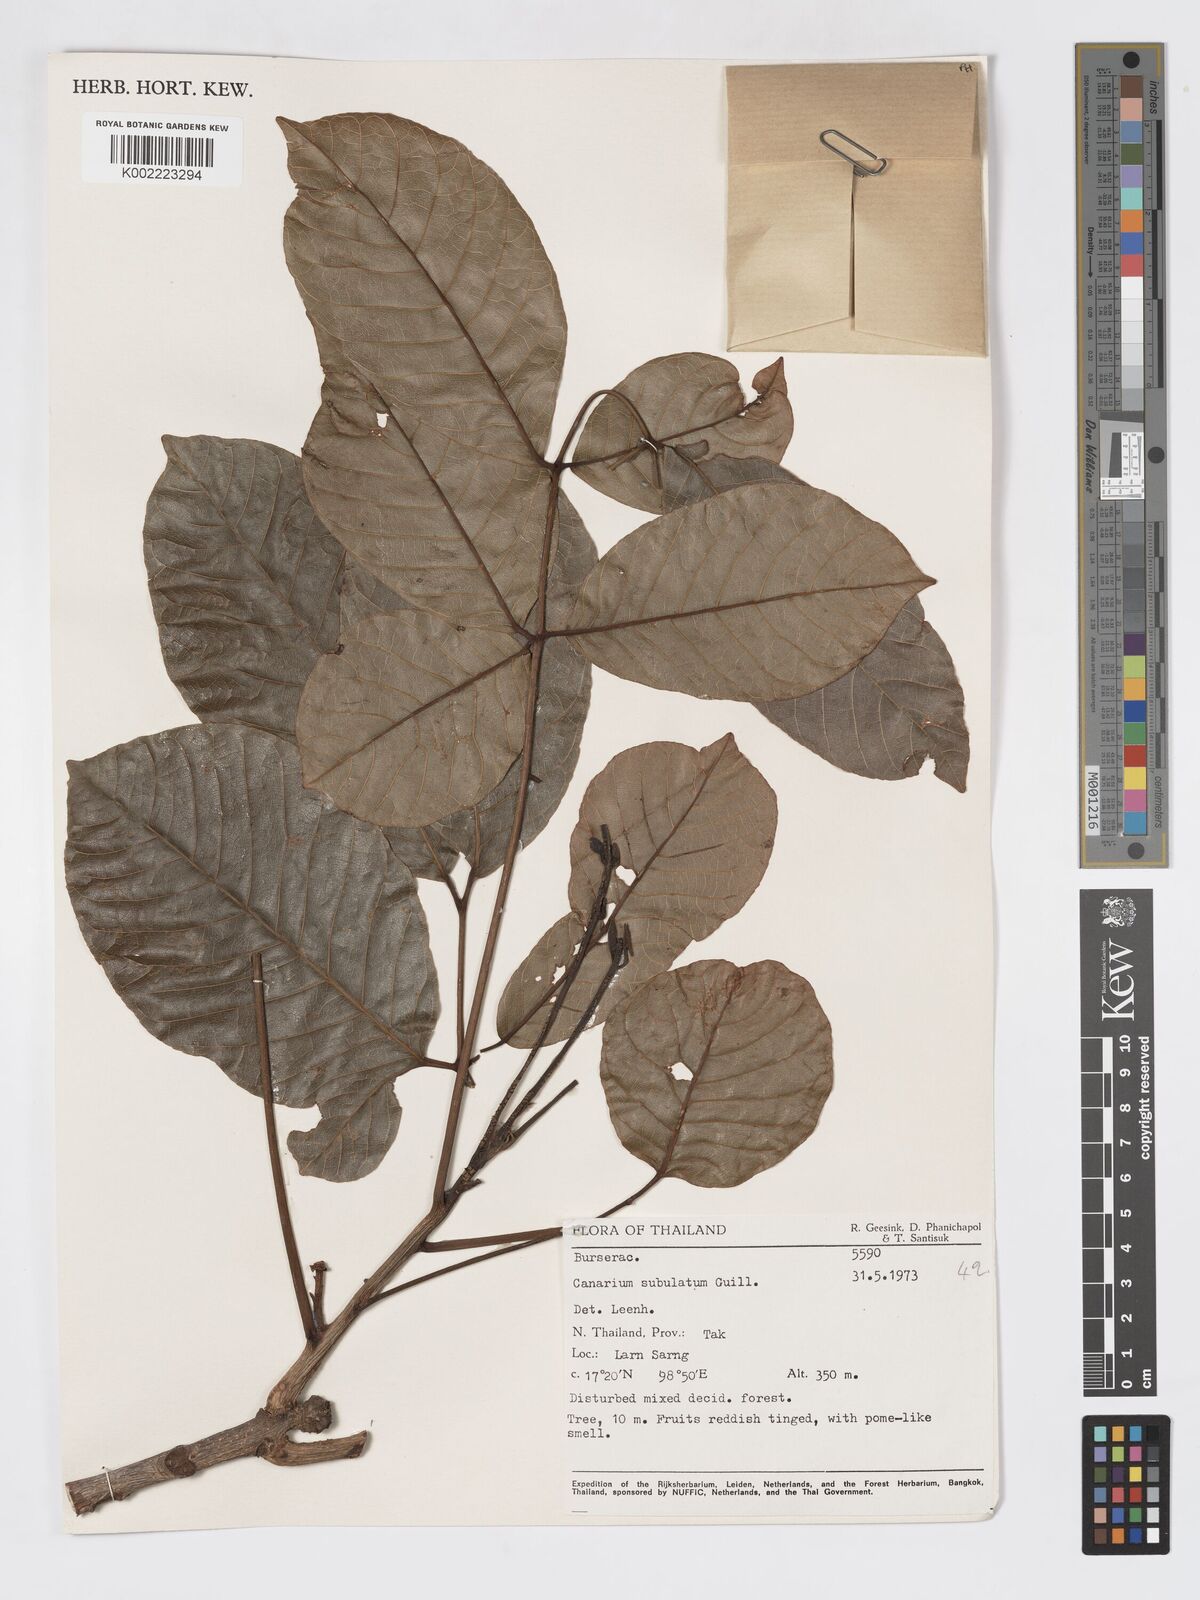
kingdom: Plantae
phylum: Tracheophyta
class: Magnoliopsida
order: Sapindales
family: Burseraceae
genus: Canarium
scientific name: Canarium subulatum
